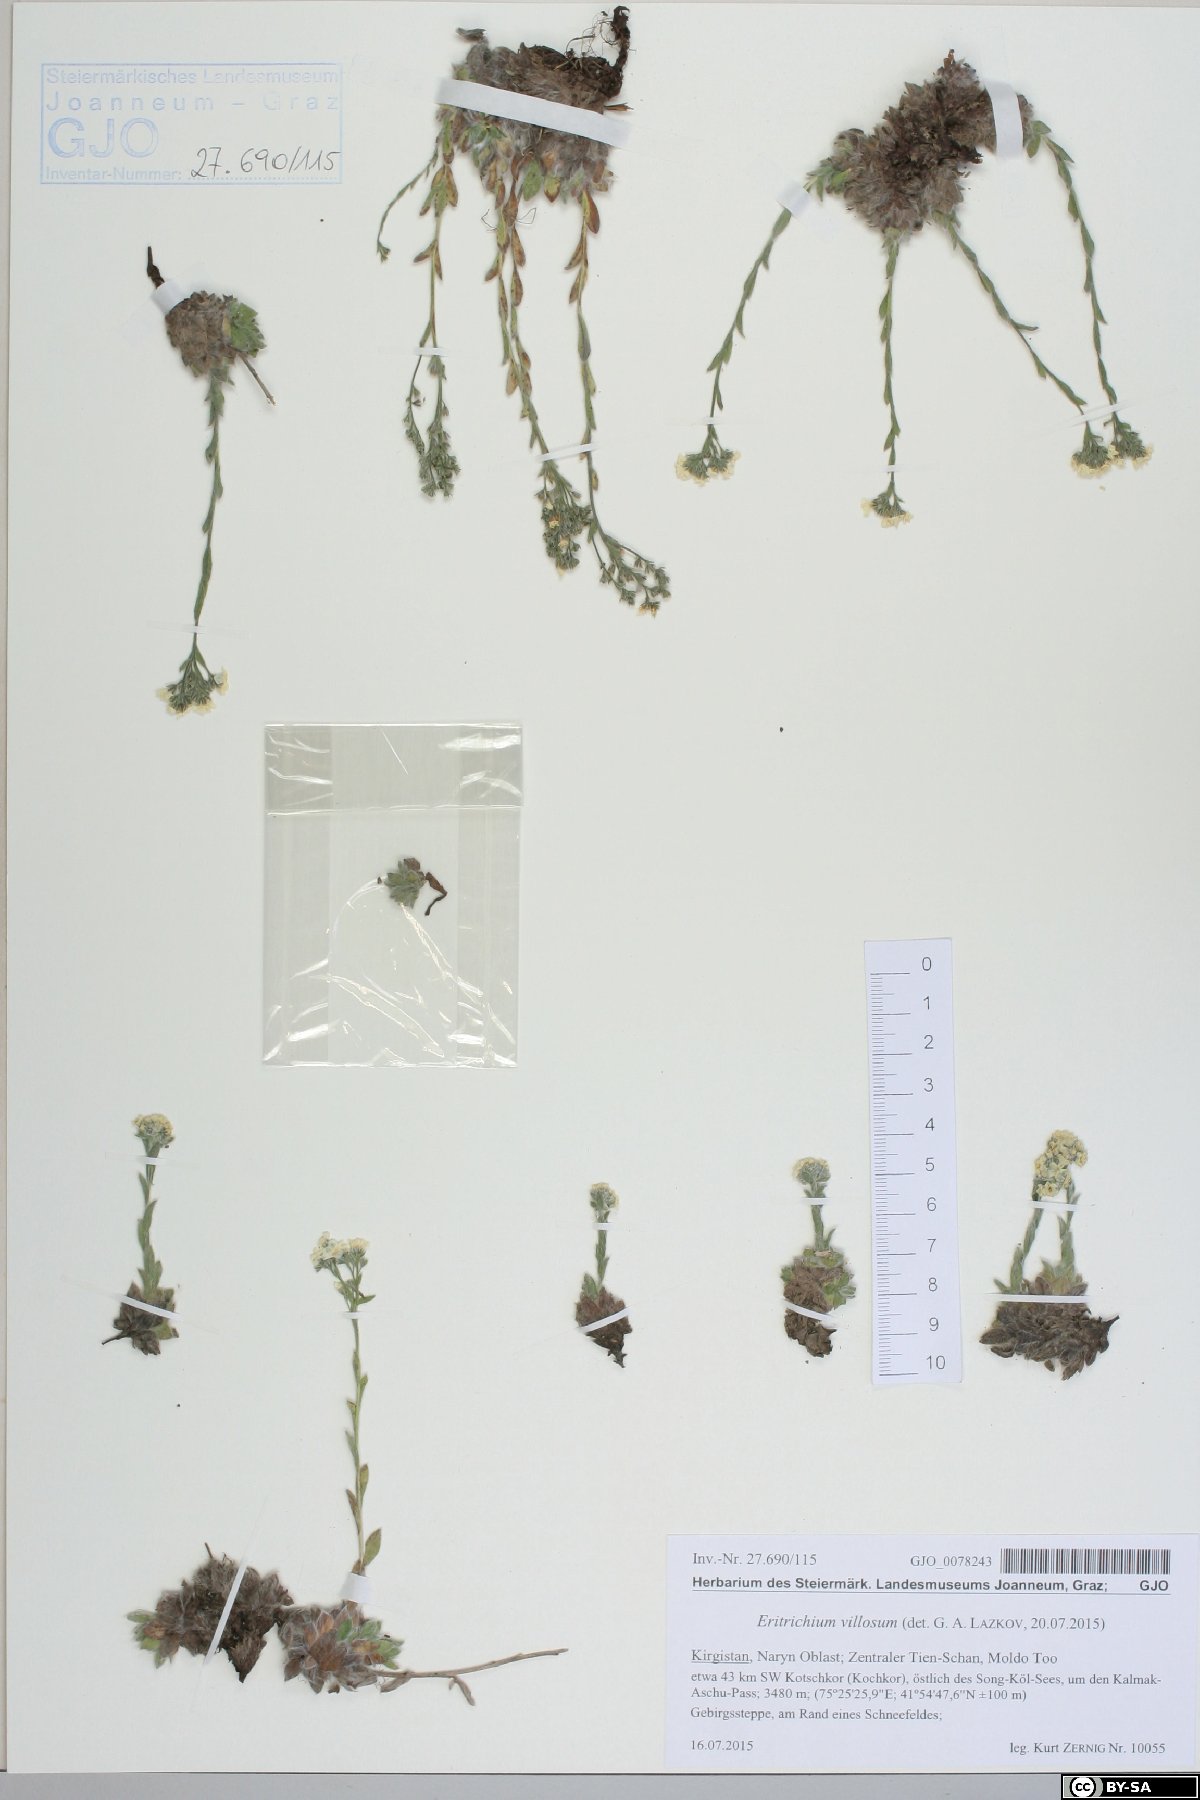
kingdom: Plantae
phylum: Tracheophyta
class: Magnoliopsida
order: Boraginales
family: Boraginaceae
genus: Eritrichium
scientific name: Eritrichium villosum
